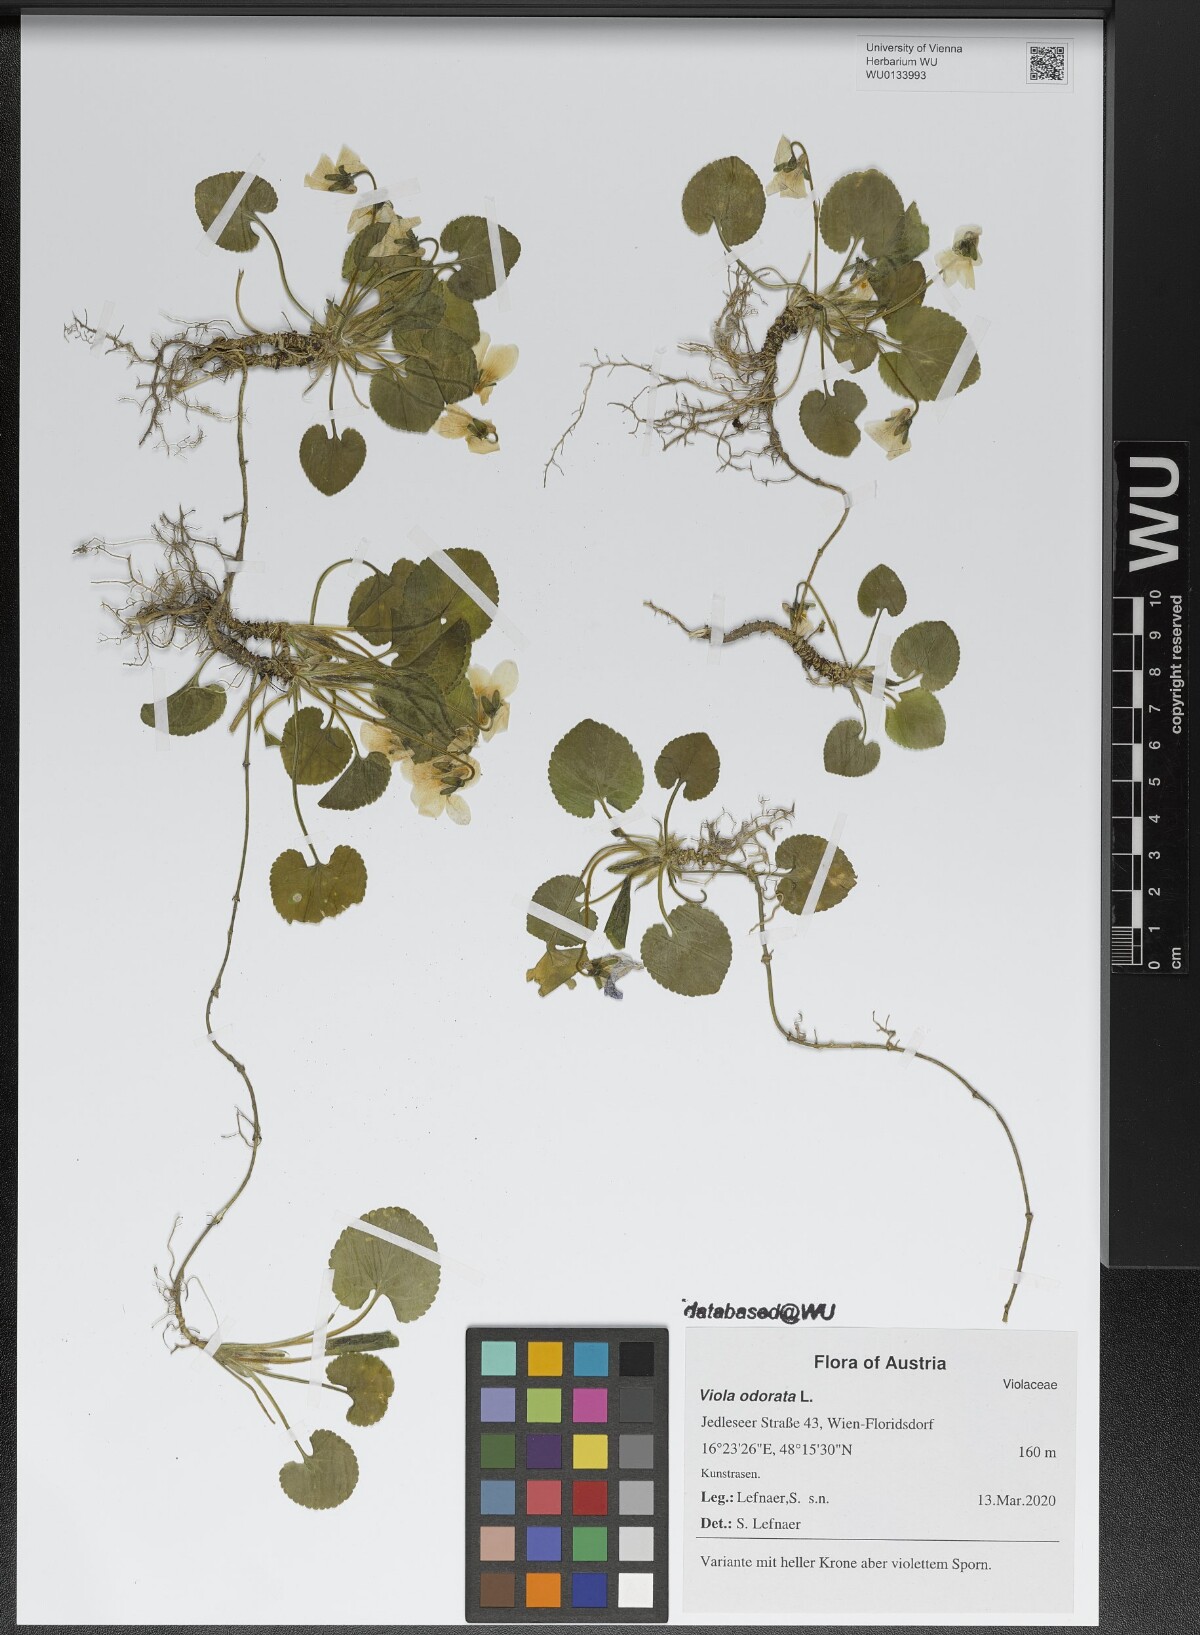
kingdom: Plantae
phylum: Tracheophyta
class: Magnoliopsida
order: Malpighiales
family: Violaceae
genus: Viola
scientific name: Viola odorata
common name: Sweet violet
